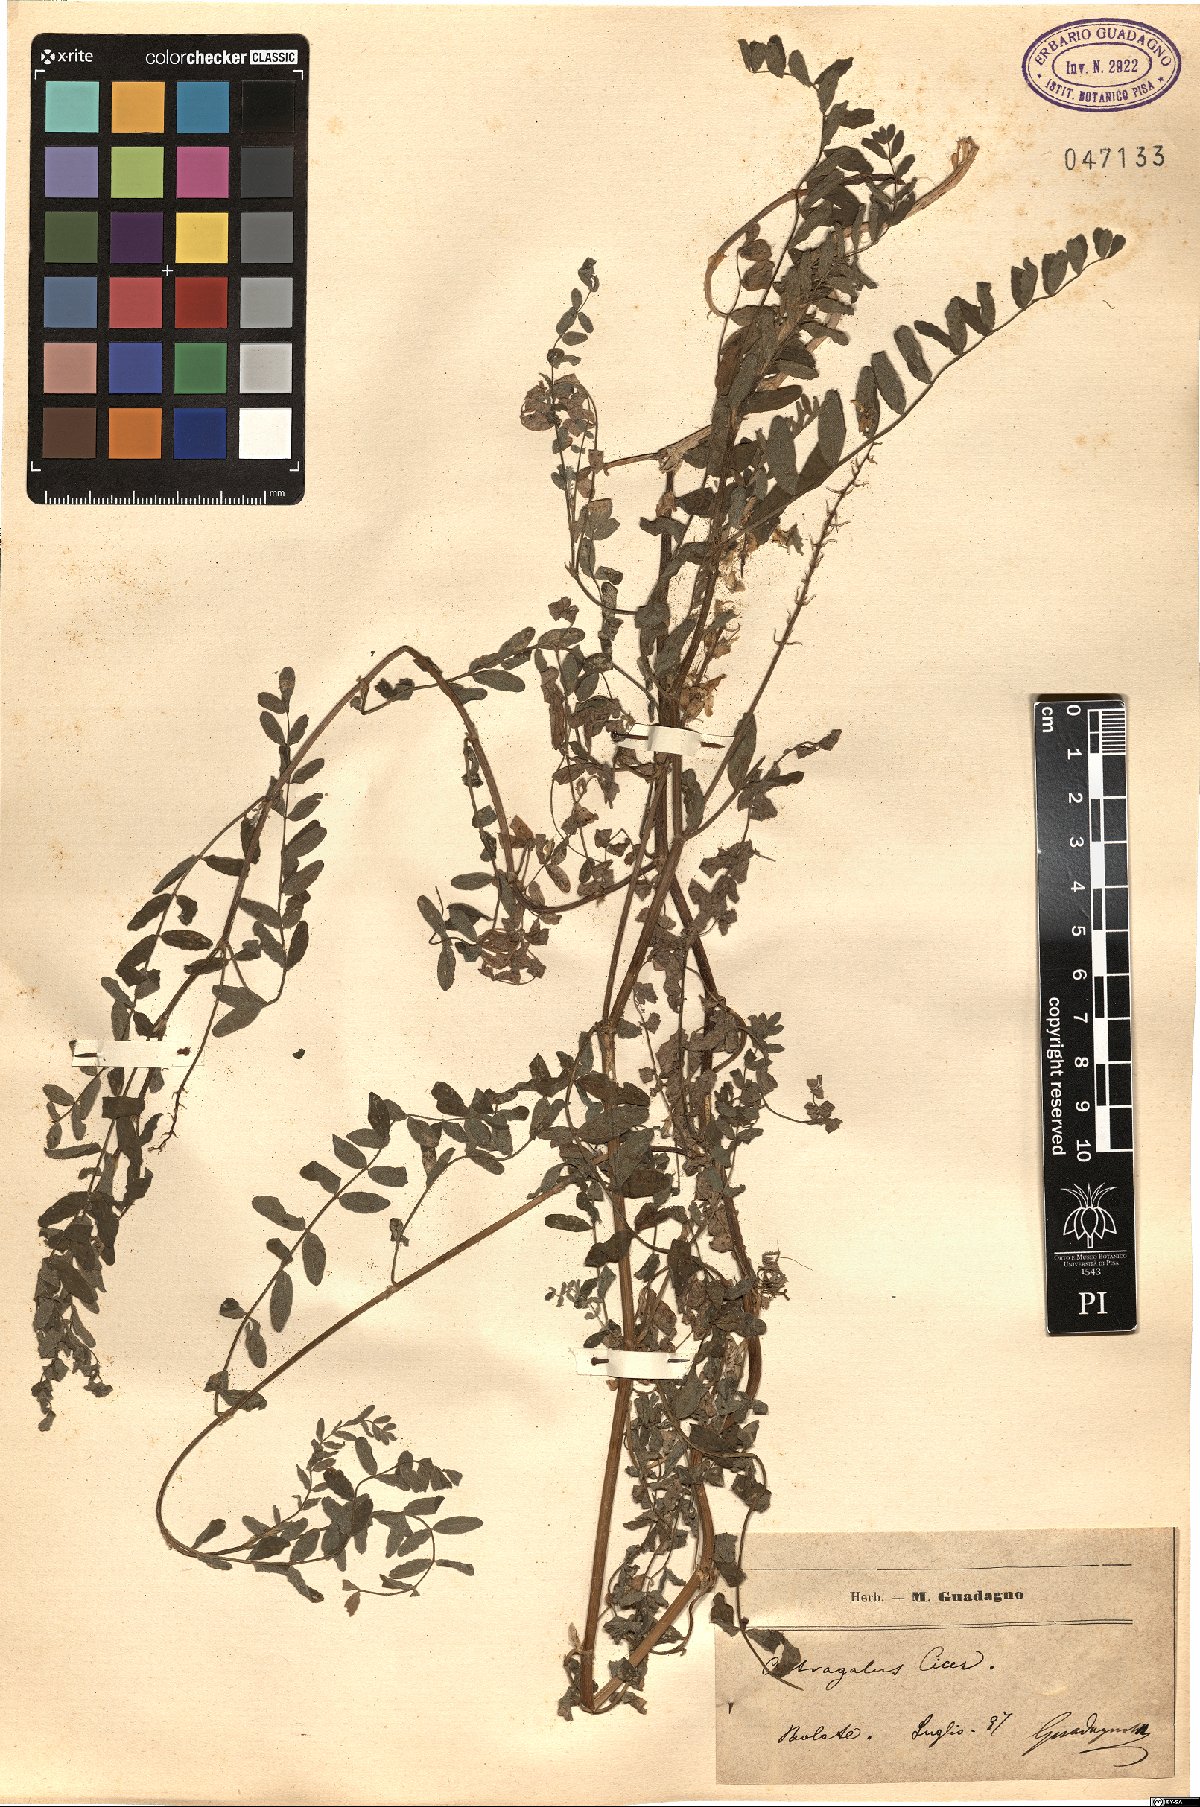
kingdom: Plantae
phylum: Tracheophyta
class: Magnoliopsida
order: Fabales
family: Fabaceae
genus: Astragalus
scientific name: Astragalus cicer
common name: Chick-pea milk-vetch
